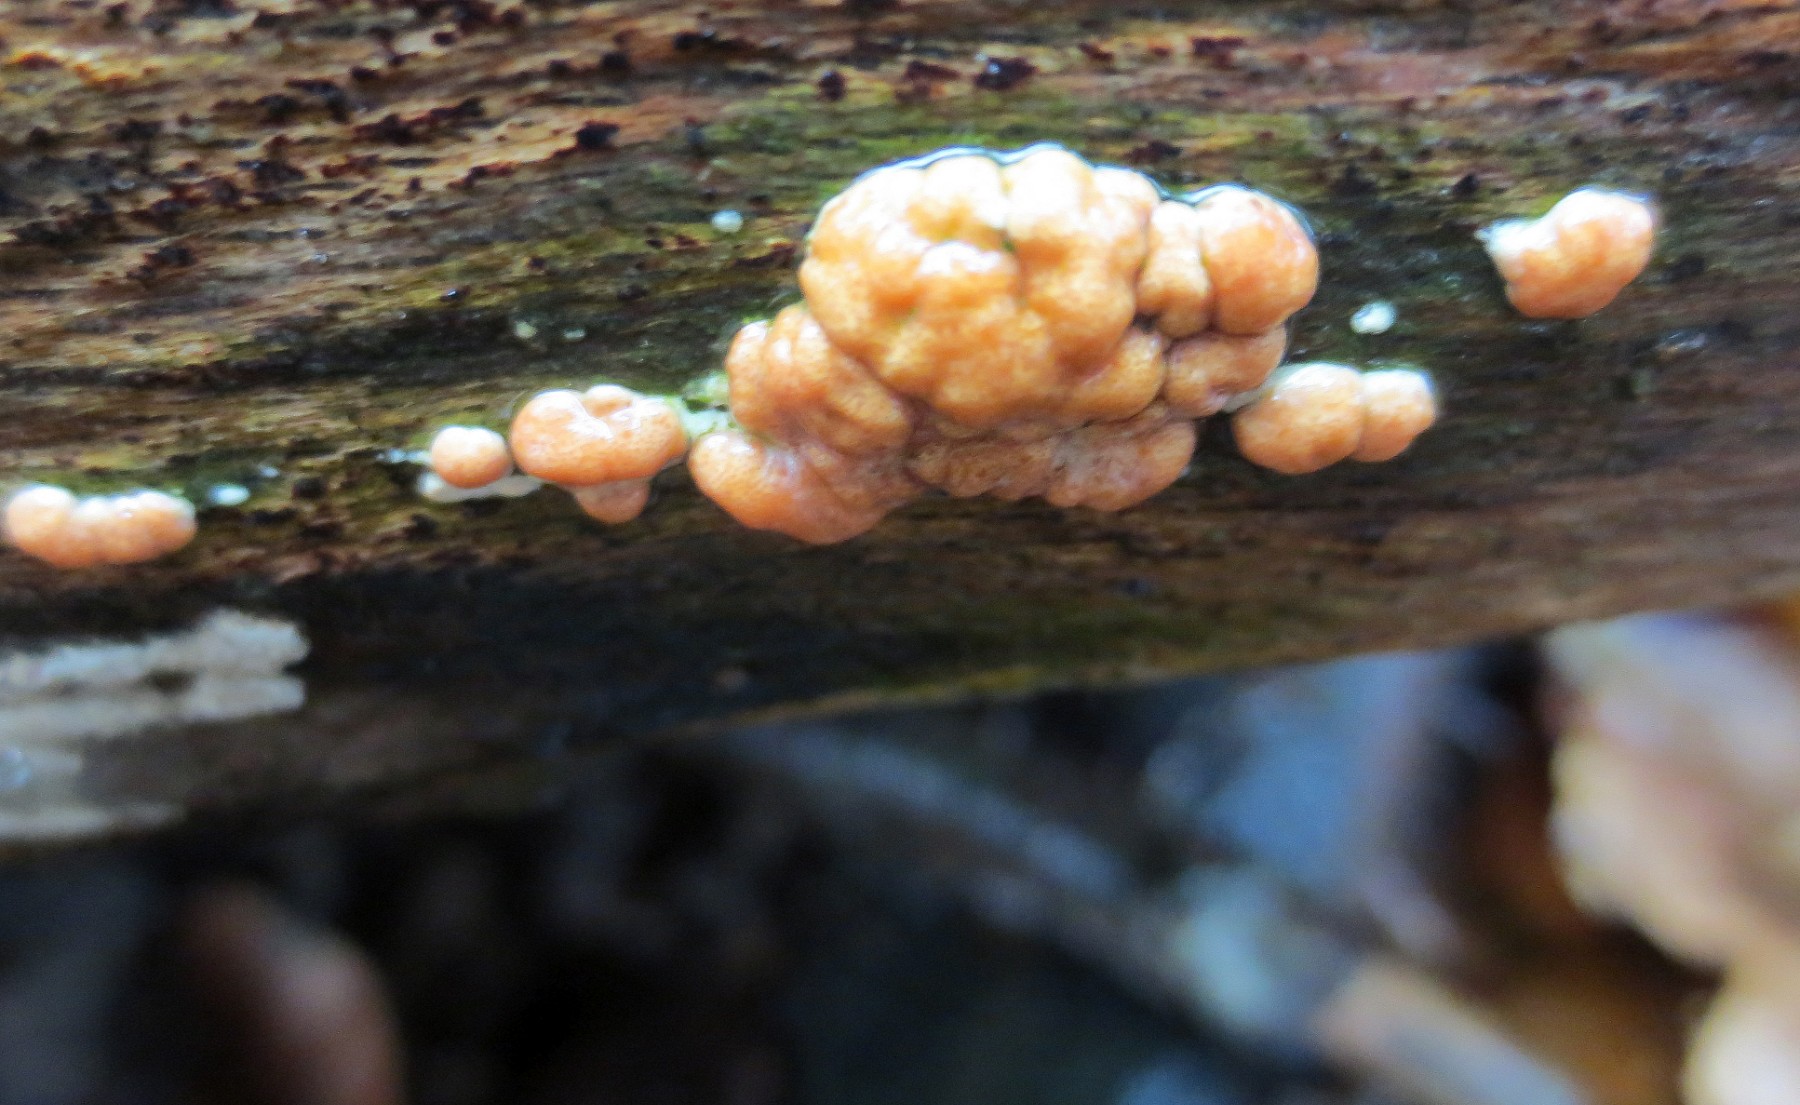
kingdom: Fungi
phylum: Ascomycota
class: Sordariomycetes
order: Hypocreales
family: Hypocreaceae
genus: Trichoderma
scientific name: Trichoderma europaeum
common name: rosabrun kødkerne
